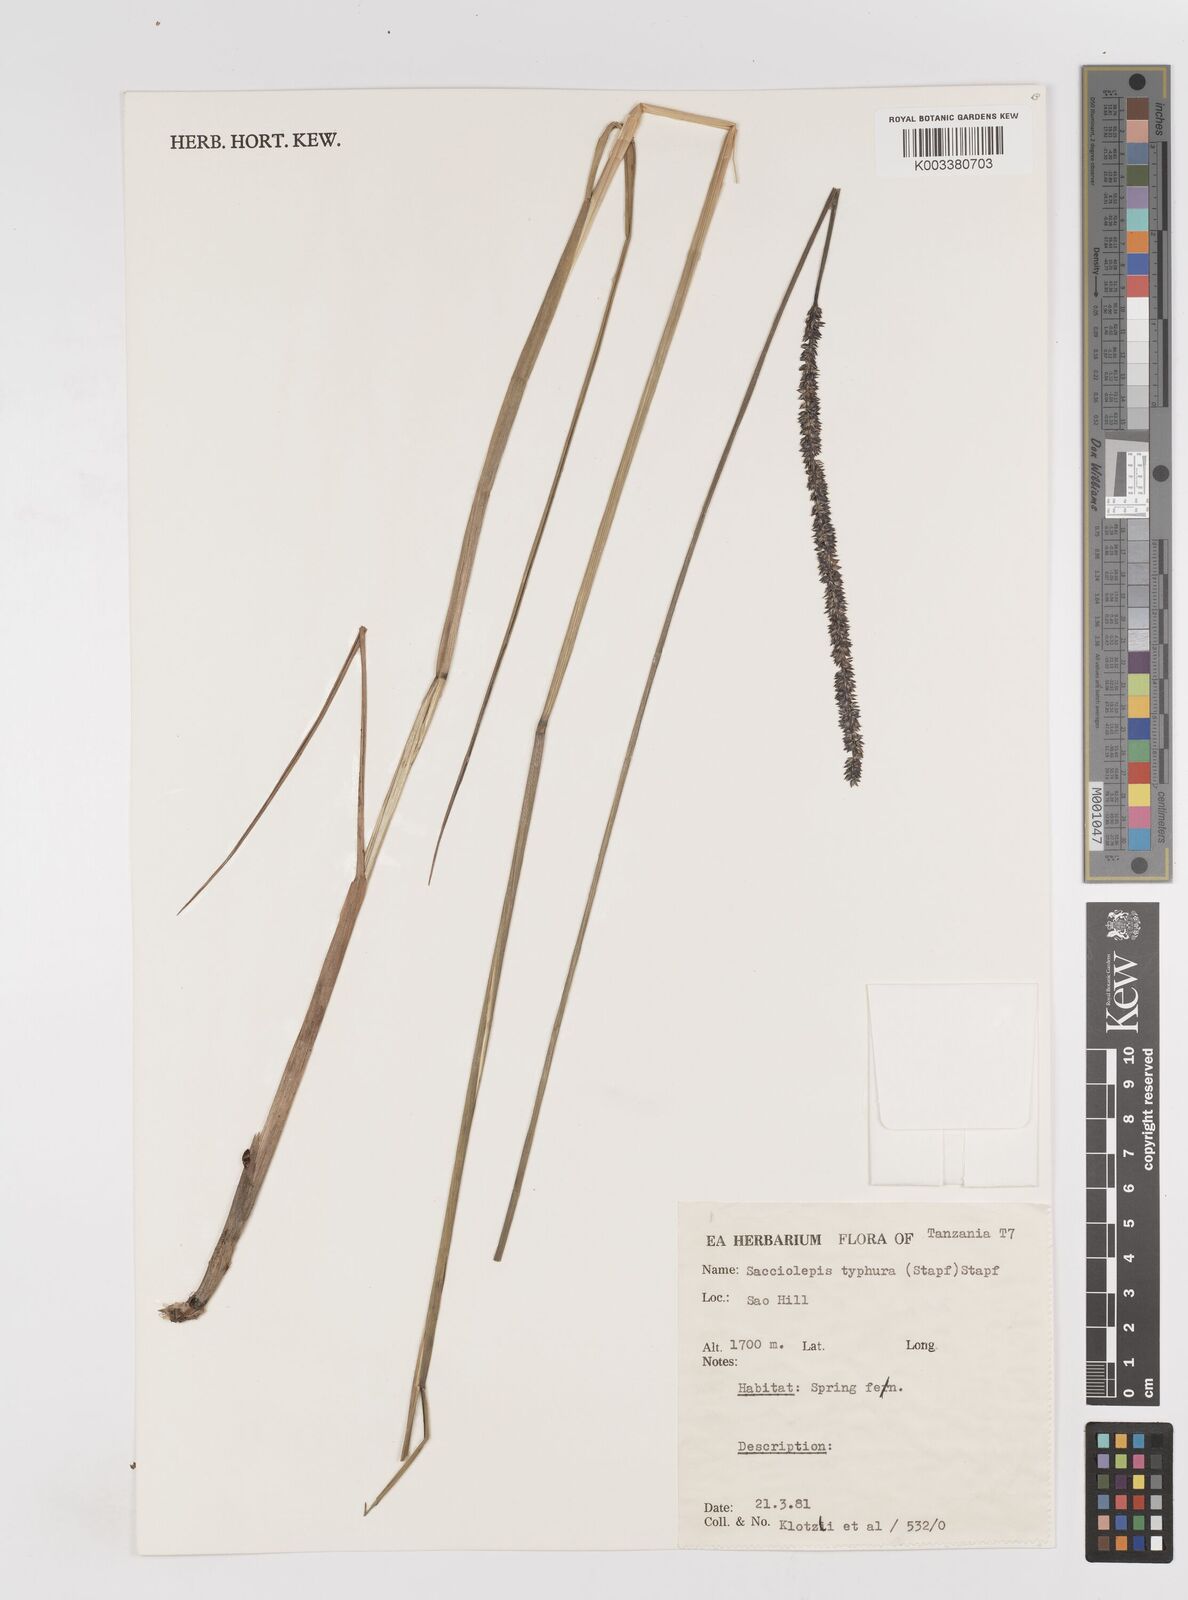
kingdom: Plantae
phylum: Tracheophyta
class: Liliopsida
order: Poales
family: Poaceae
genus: Sacciolepis
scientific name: Sacciolepis typhura
